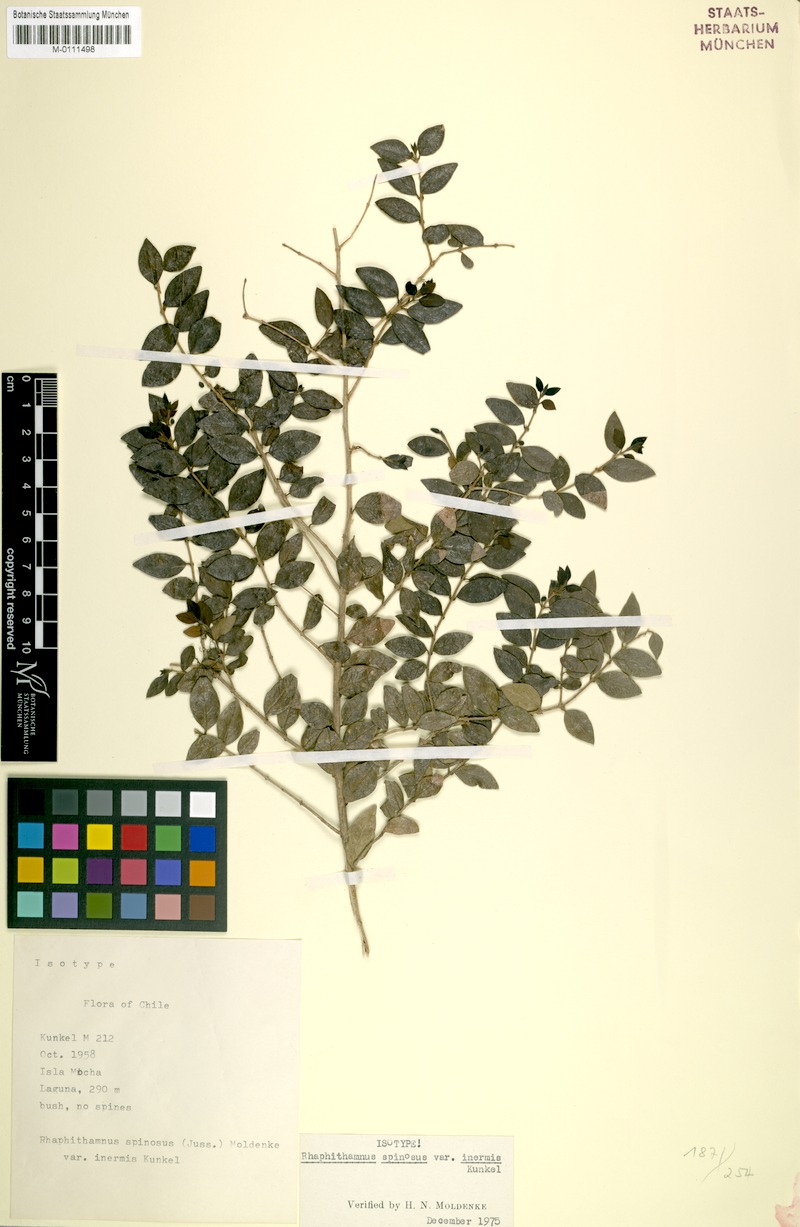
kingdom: Plantae
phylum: Tracheophyta
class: Magnoliopsida
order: Lamiales
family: Verbenaceae
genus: Rhaphithamnus
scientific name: Rhaphithamnus spinosus
